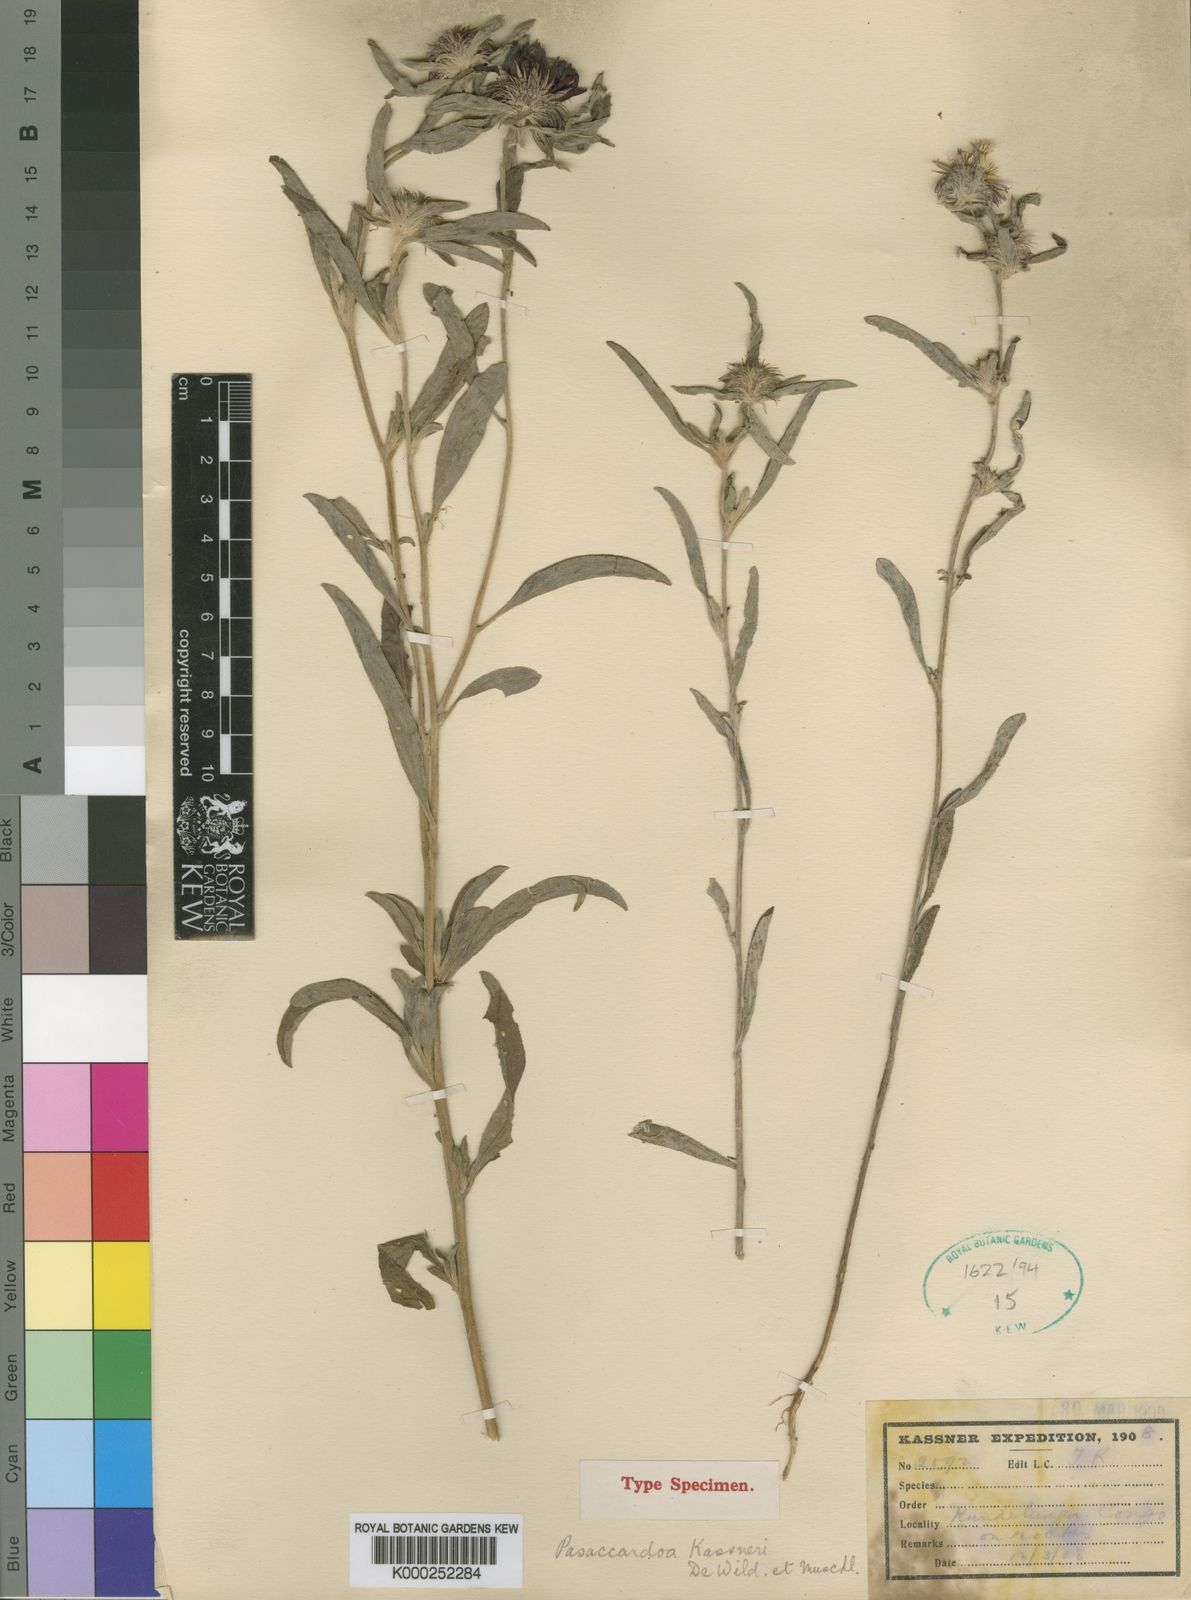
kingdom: Plantae
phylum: Tracheophyta
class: Magnoliopsida
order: Asterales
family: Asteraceae
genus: Pasaccardoa
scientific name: Pasaccardoa grantii
